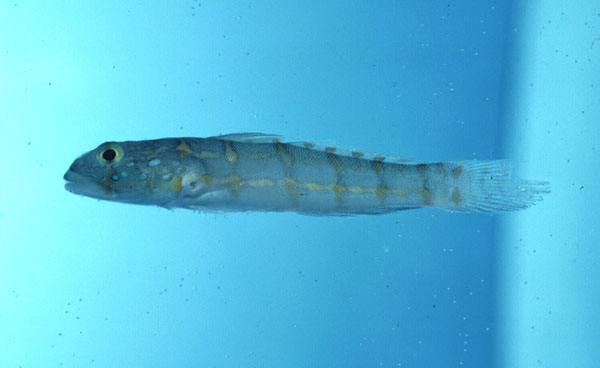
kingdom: Animalia
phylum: Chordata
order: Perciformes
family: Gobiidae
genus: Valenciennea
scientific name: Valenciennea puellaris
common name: Orange-dashed goby
